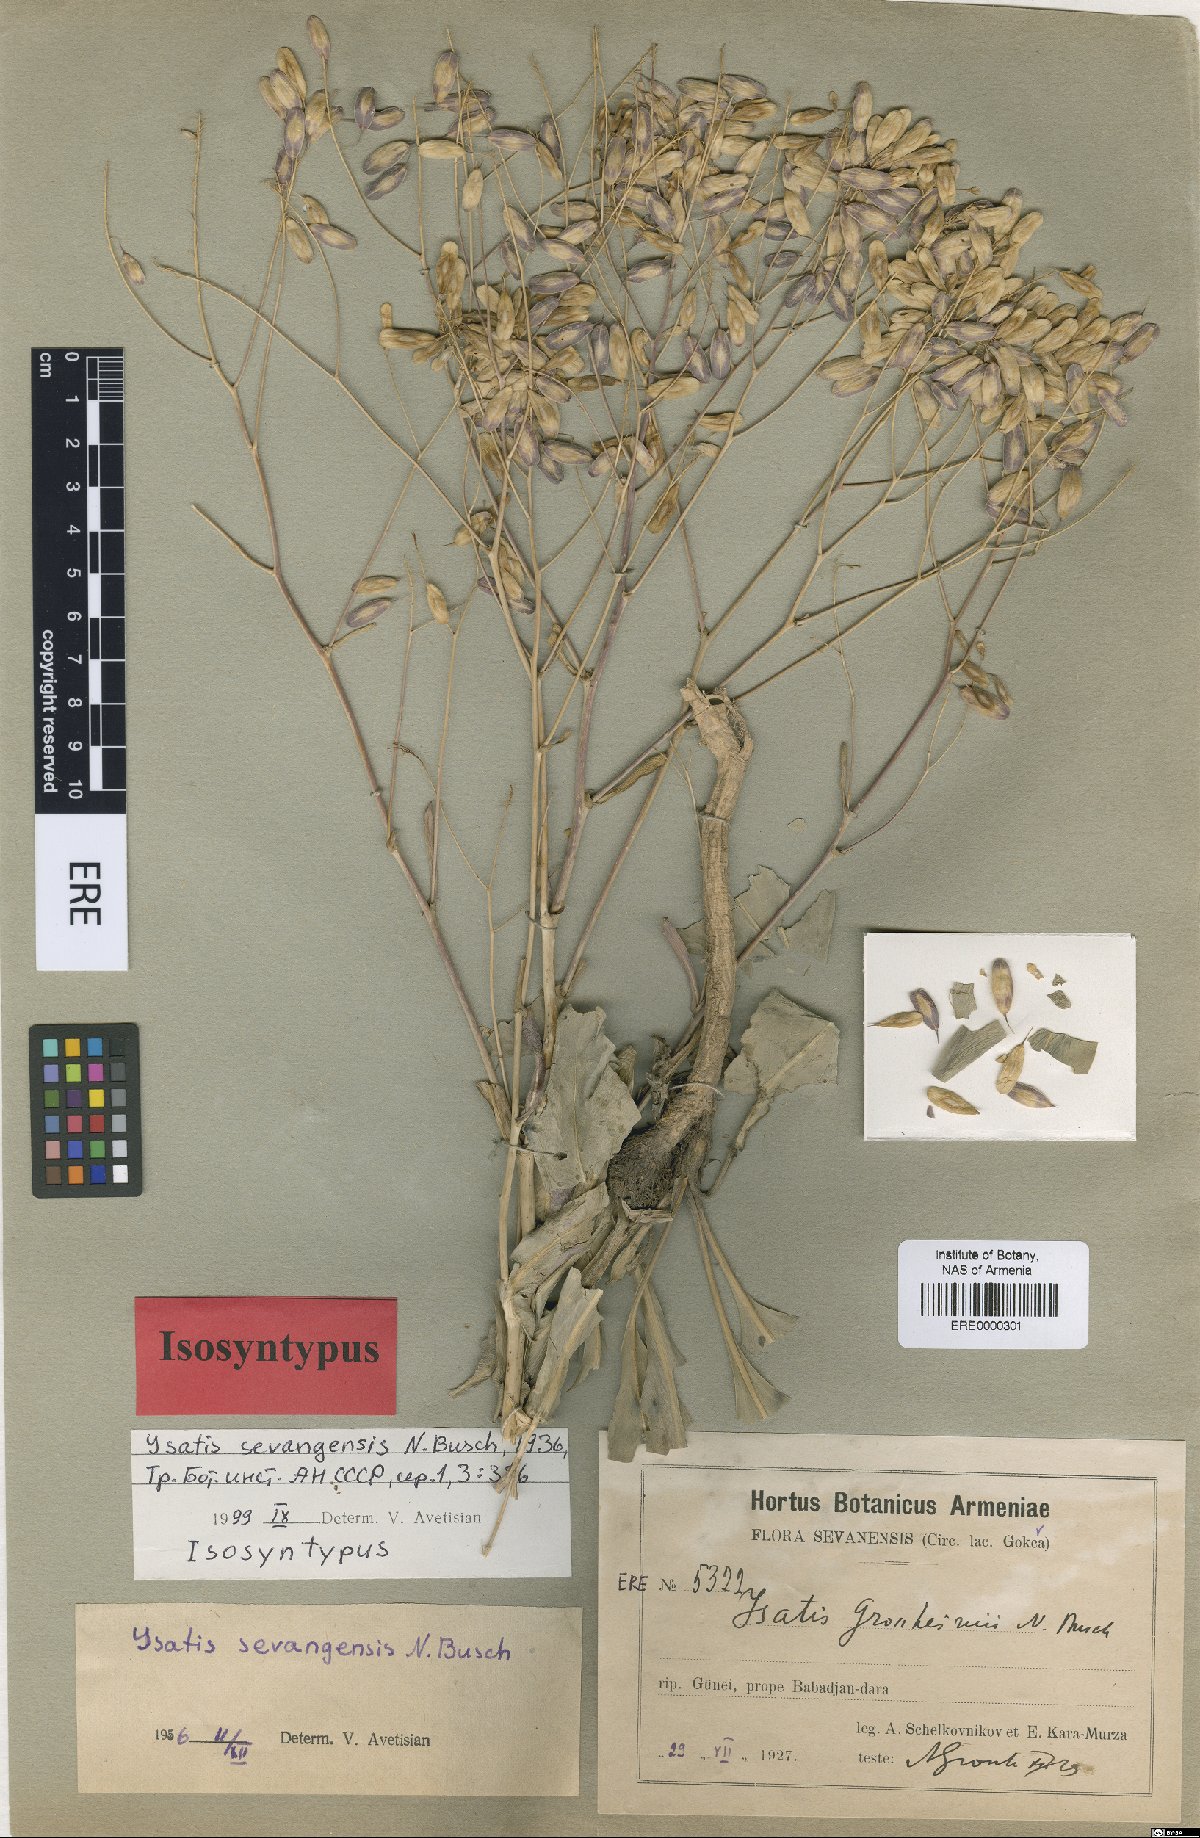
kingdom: Plantae
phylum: Tracheophyta
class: Magnoliopsida
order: Brassicales
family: Brassicaceae
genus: Isatis
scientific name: Isatis sevangensis
